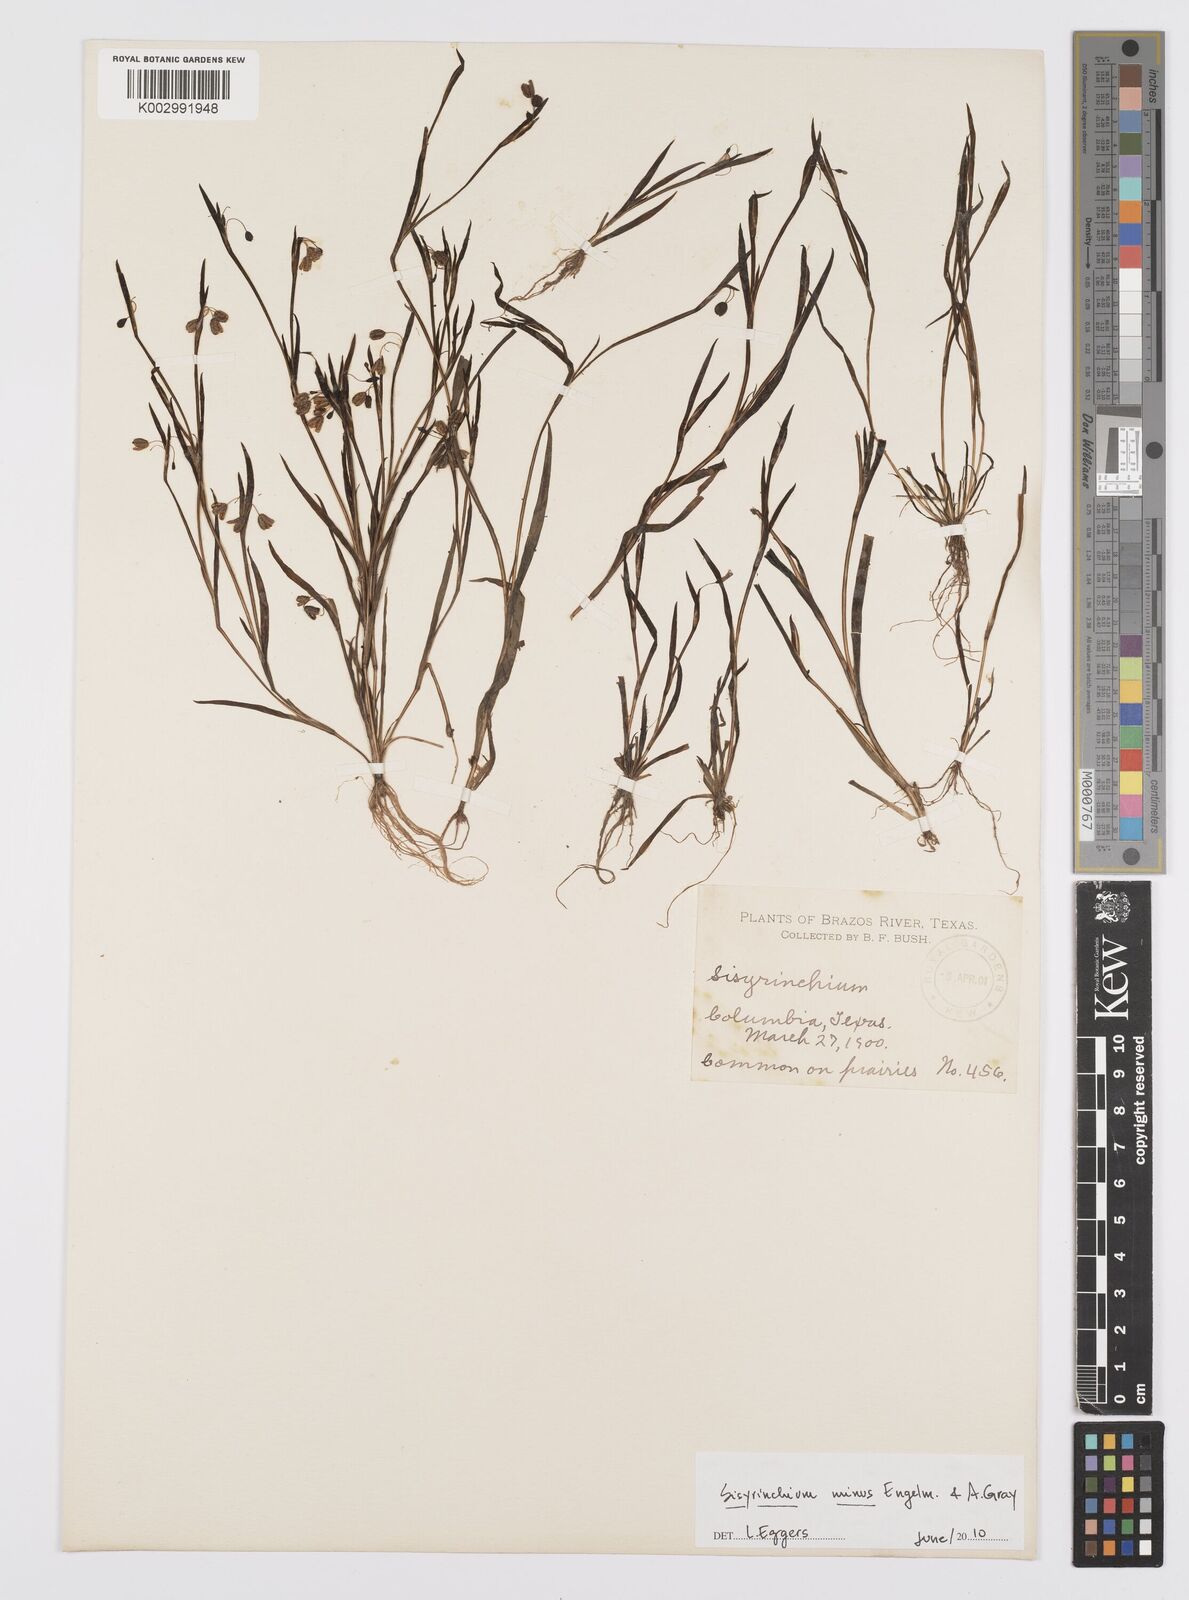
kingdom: Plantae
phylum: Tracheophyta
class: Liliopsida
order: Asparagales
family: Iridaceae
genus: Sisyrinchium
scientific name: Sisyrinchium minus
